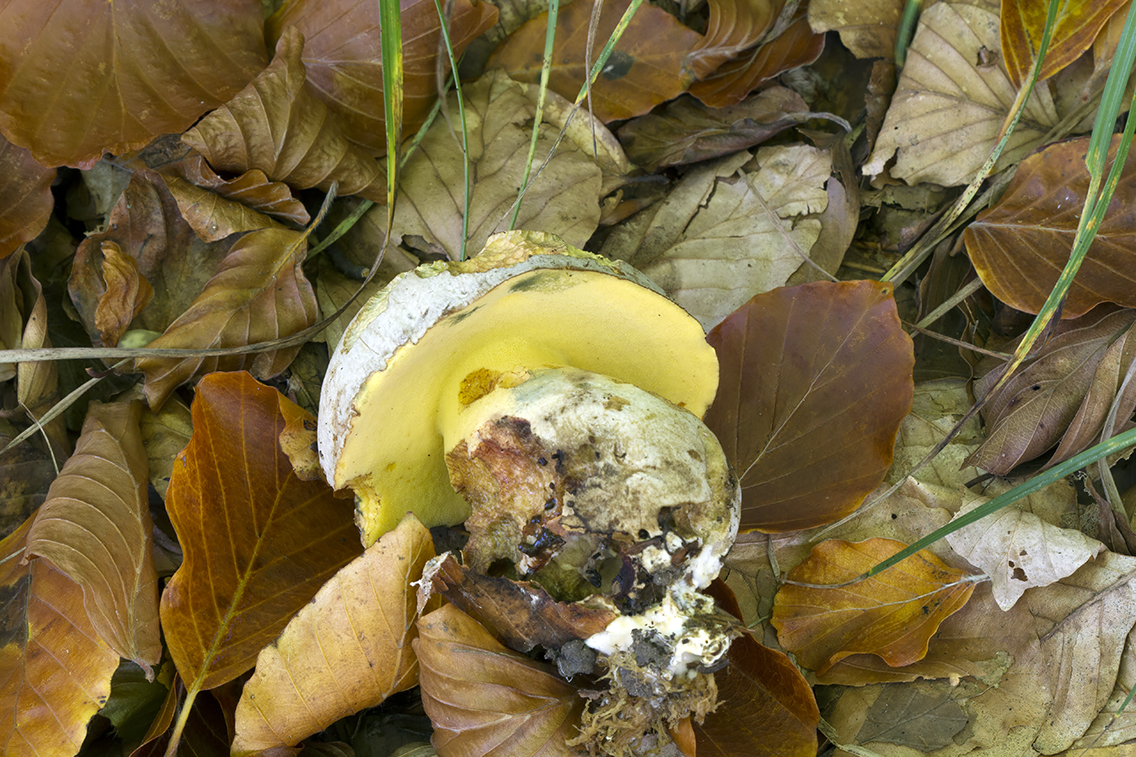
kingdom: Fungi
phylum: Basidiomycota
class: Agaricomycetes
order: Boletales
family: Boletaceae
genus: Butyriboletus
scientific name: Butyriboletus fechtneri
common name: sølvskinnende rørhat
